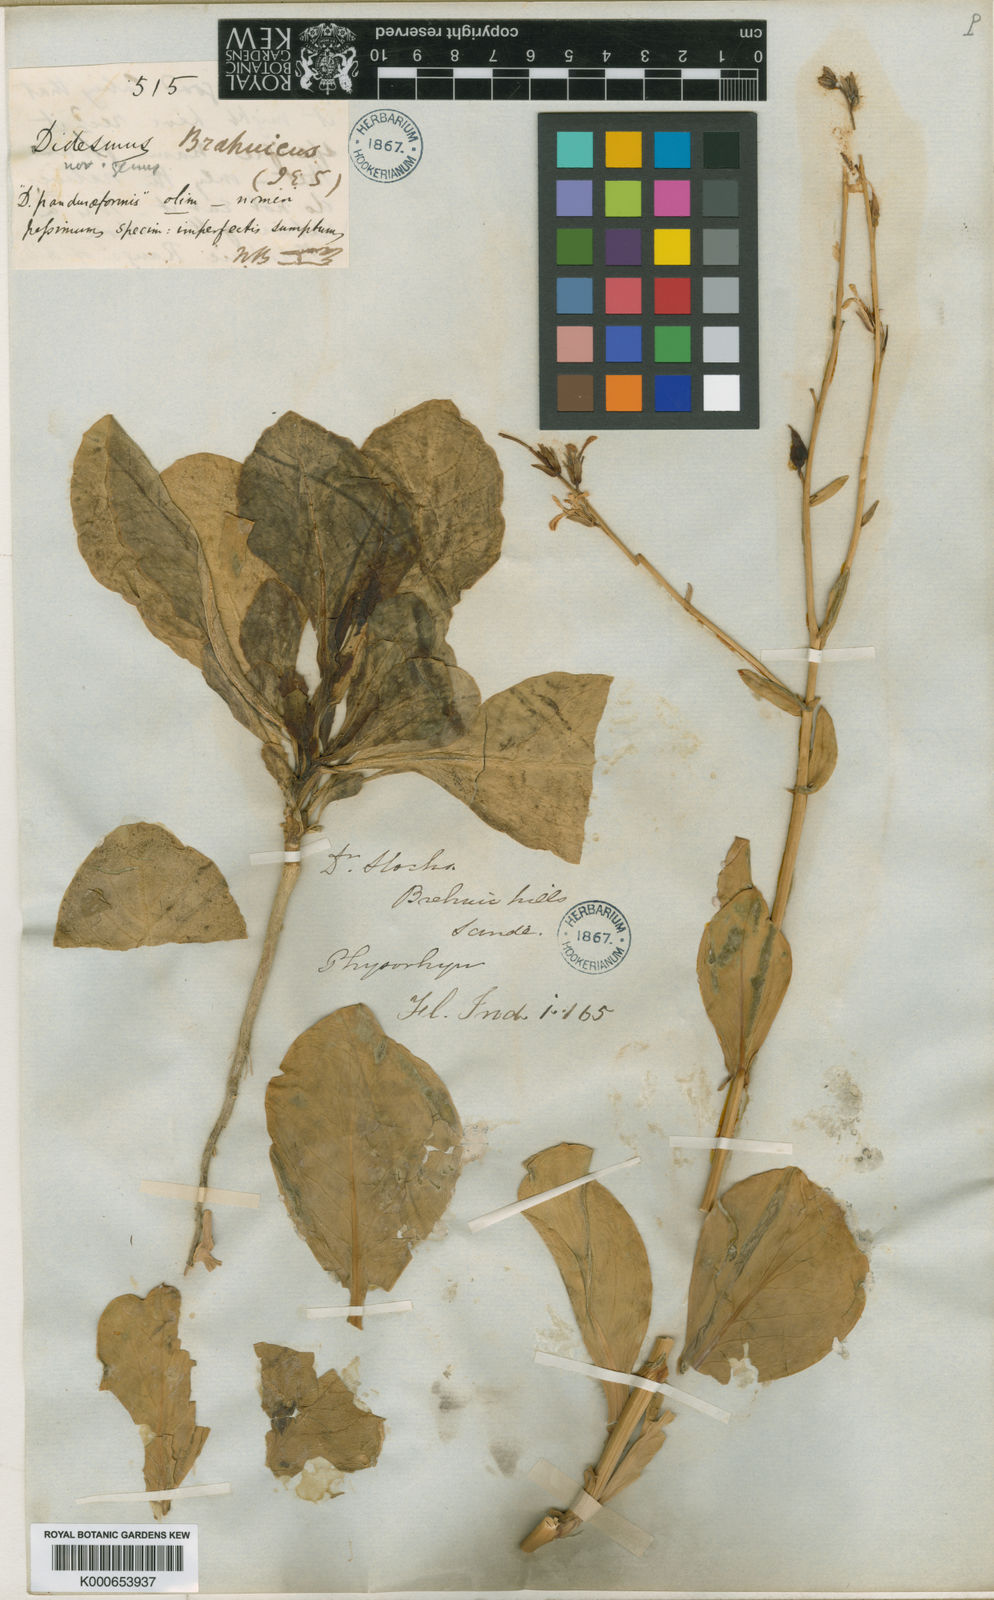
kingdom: Plantae
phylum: Tracheophyta
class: Magnoliopsida
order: Brassicales
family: Brassicaceae
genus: Physorhynchus
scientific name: Physorhynchus brahuicus
